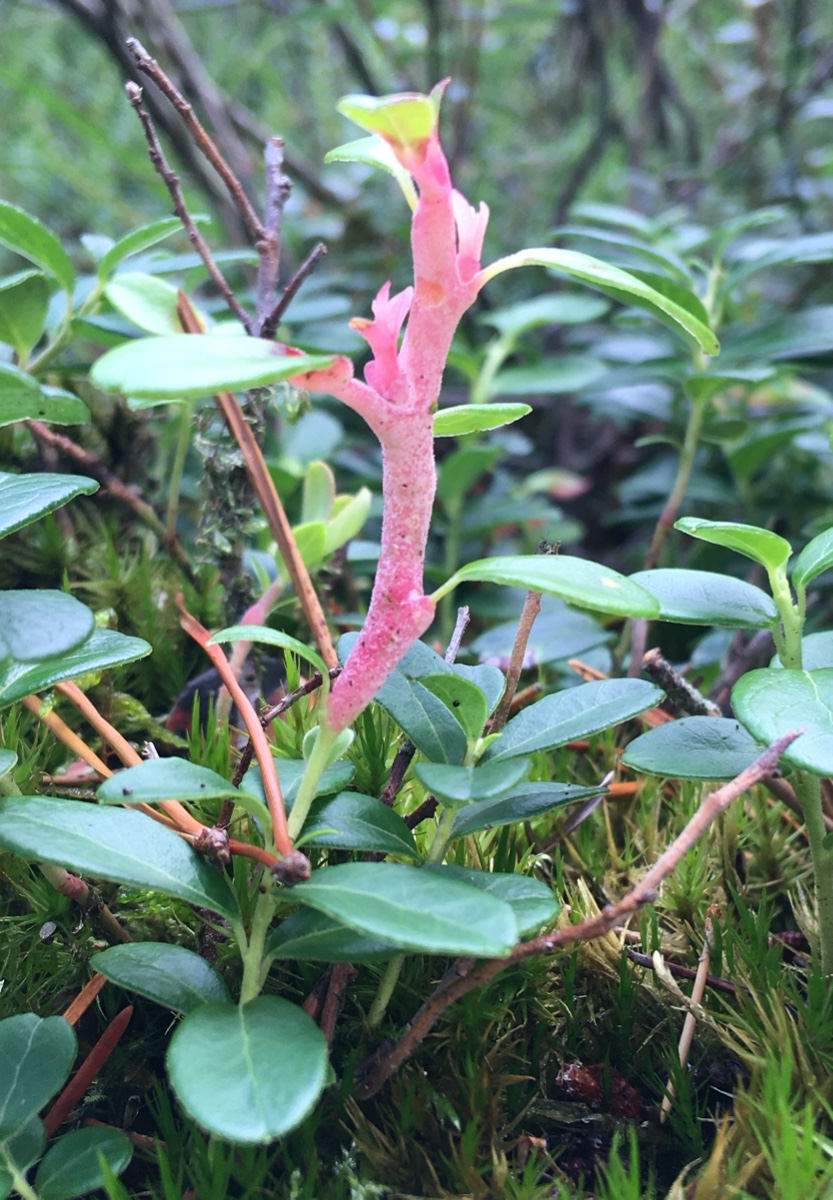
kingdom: Fungi
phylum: Basidiomycota
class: Exobasidiomycetes
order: Exobasidiales
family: Exobasidiaceae
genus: Exobasidium
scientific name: Exobasidium vaccinii
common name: tyttebærblad-bøllesvamp
